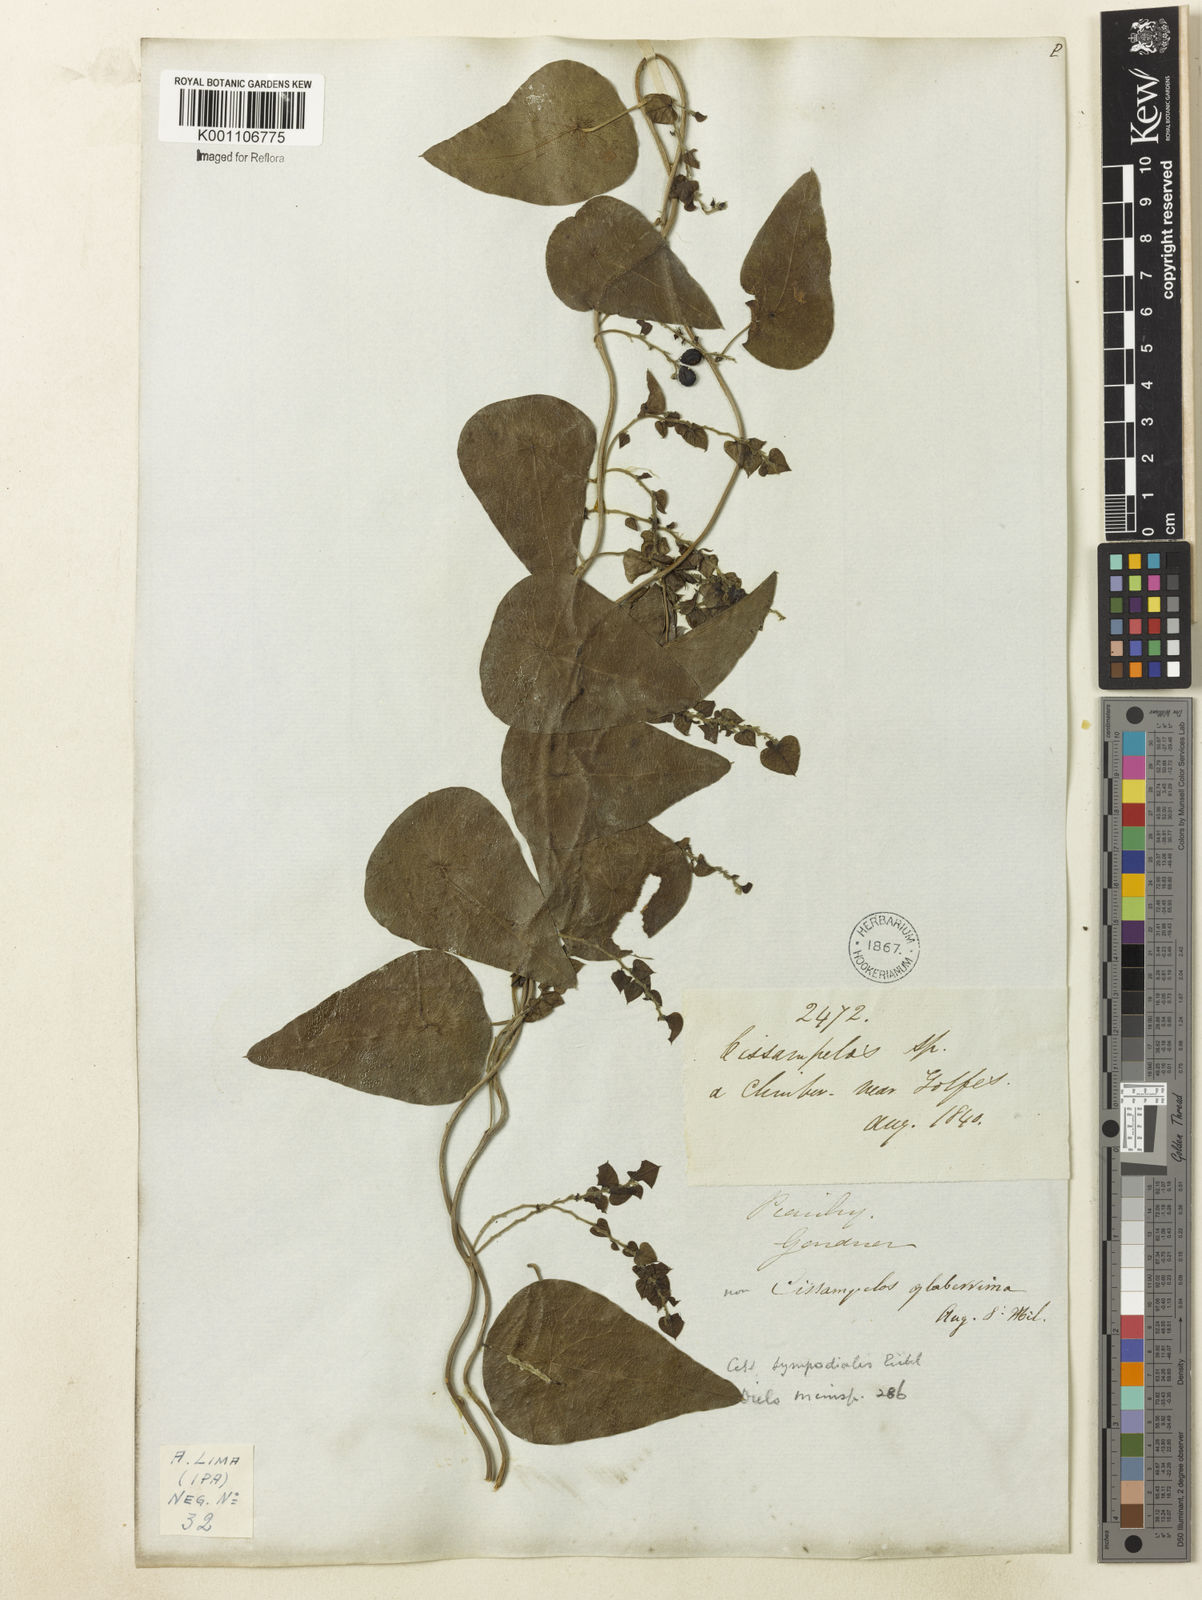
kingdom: Plantae
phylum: Tracheophyta
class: Magnoliopsida
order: Ranunculales
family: Menispermaceae
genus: Cissampelos
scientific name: Cissampelos sympodialis
